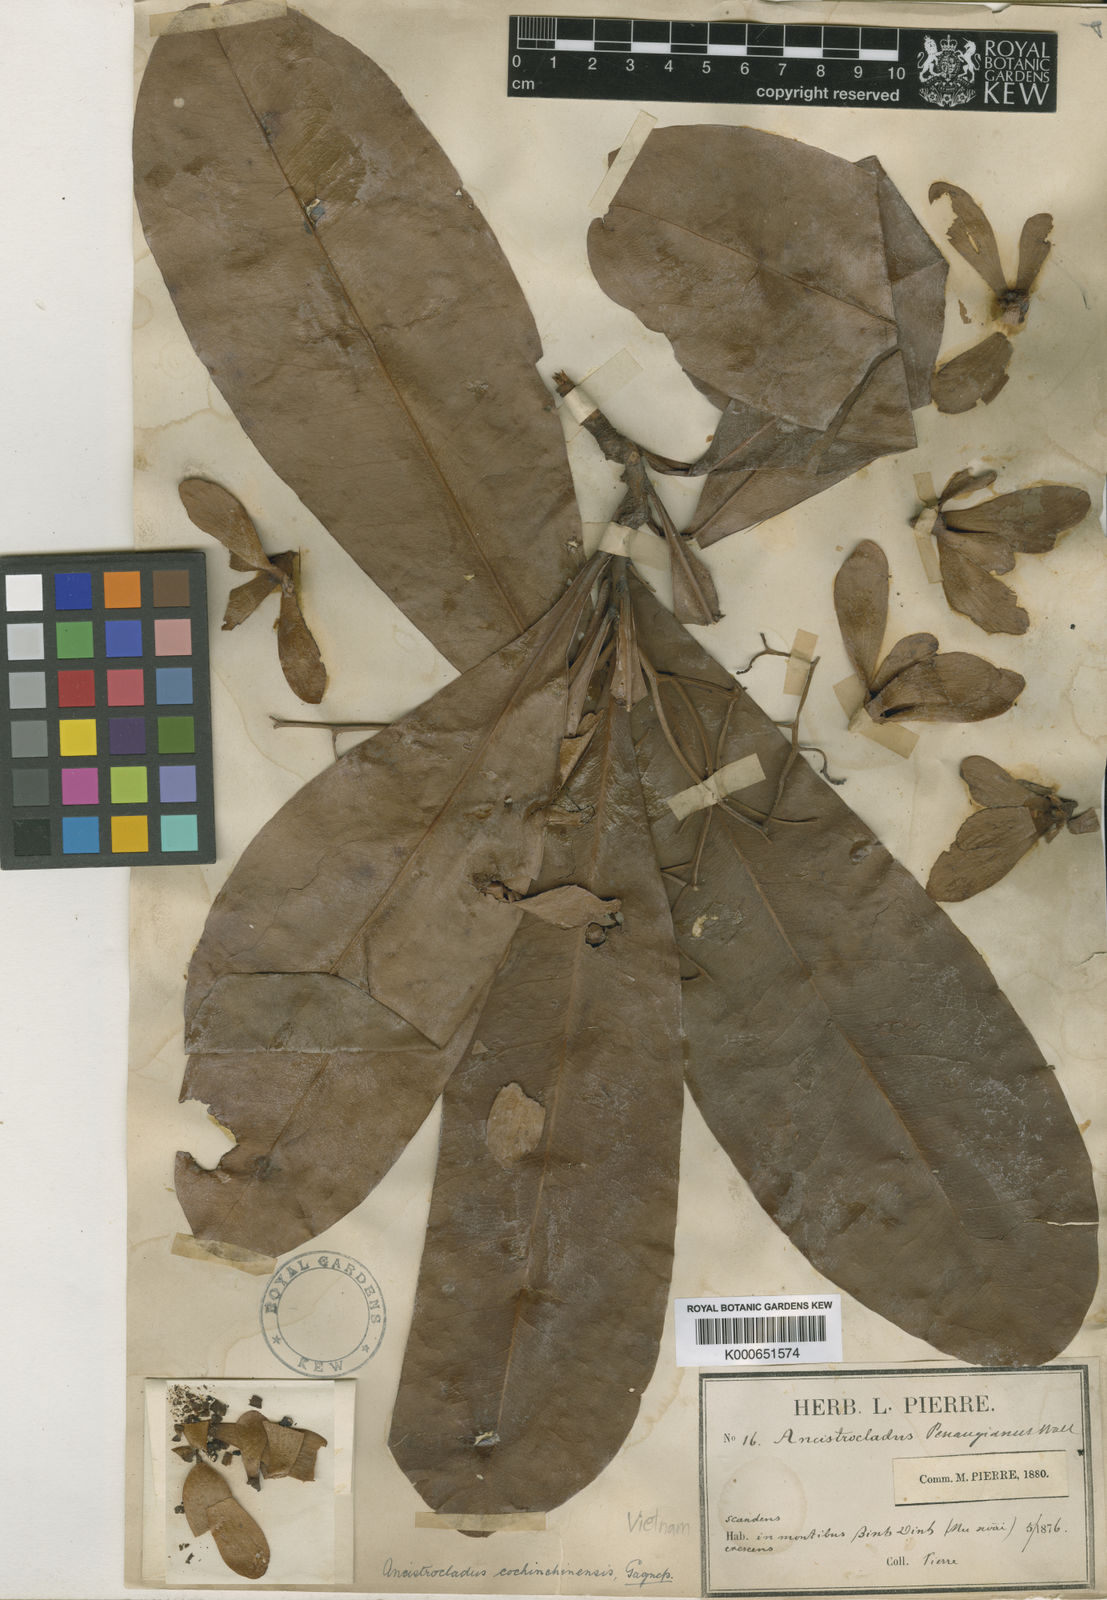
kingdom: Plantae
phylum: Tracheophyta
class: Magnoliopsida
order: Caryophyllales
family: Ancistrocladaceae
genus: Ancistrocladus
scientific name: Ancistrocladus tectorius
